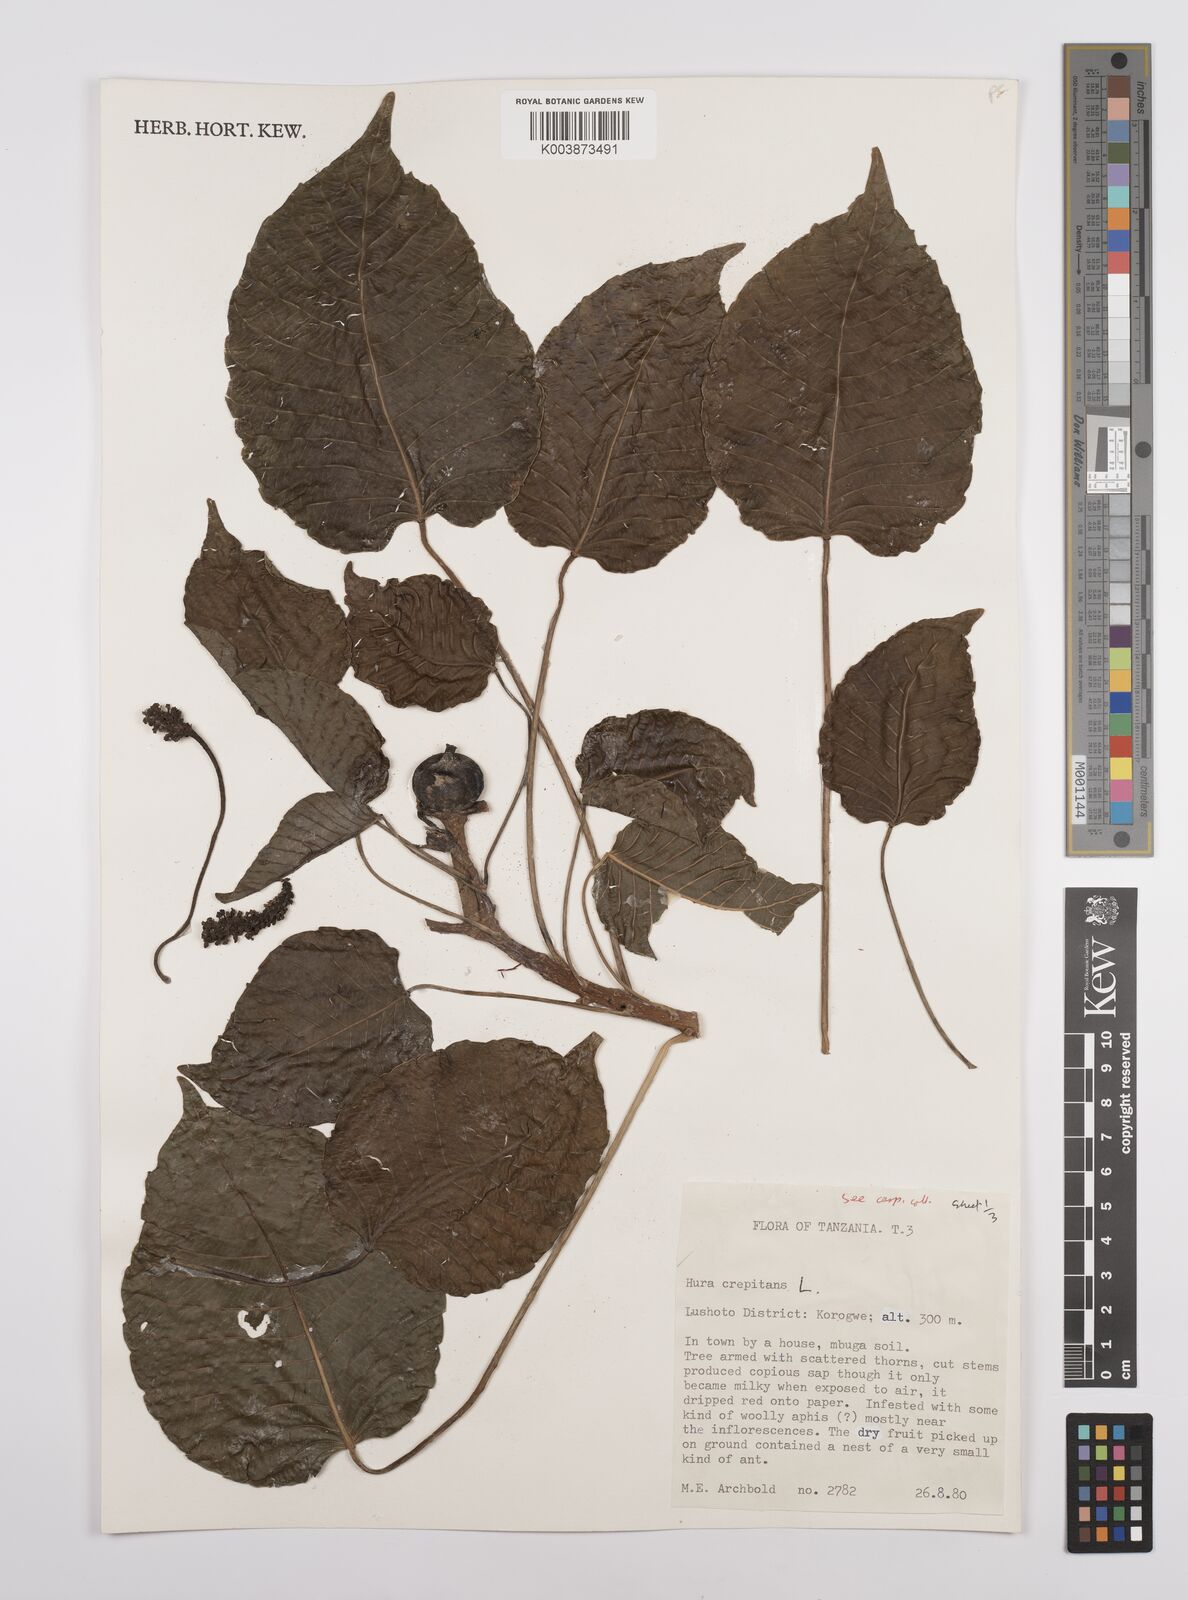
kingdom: Plantae
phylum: Tracheophyta
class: Magnoliopsida
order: Malpighiales
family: Euphorbiaceae
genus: Hura
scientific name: Hura crepitans
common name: Sandboxtree
